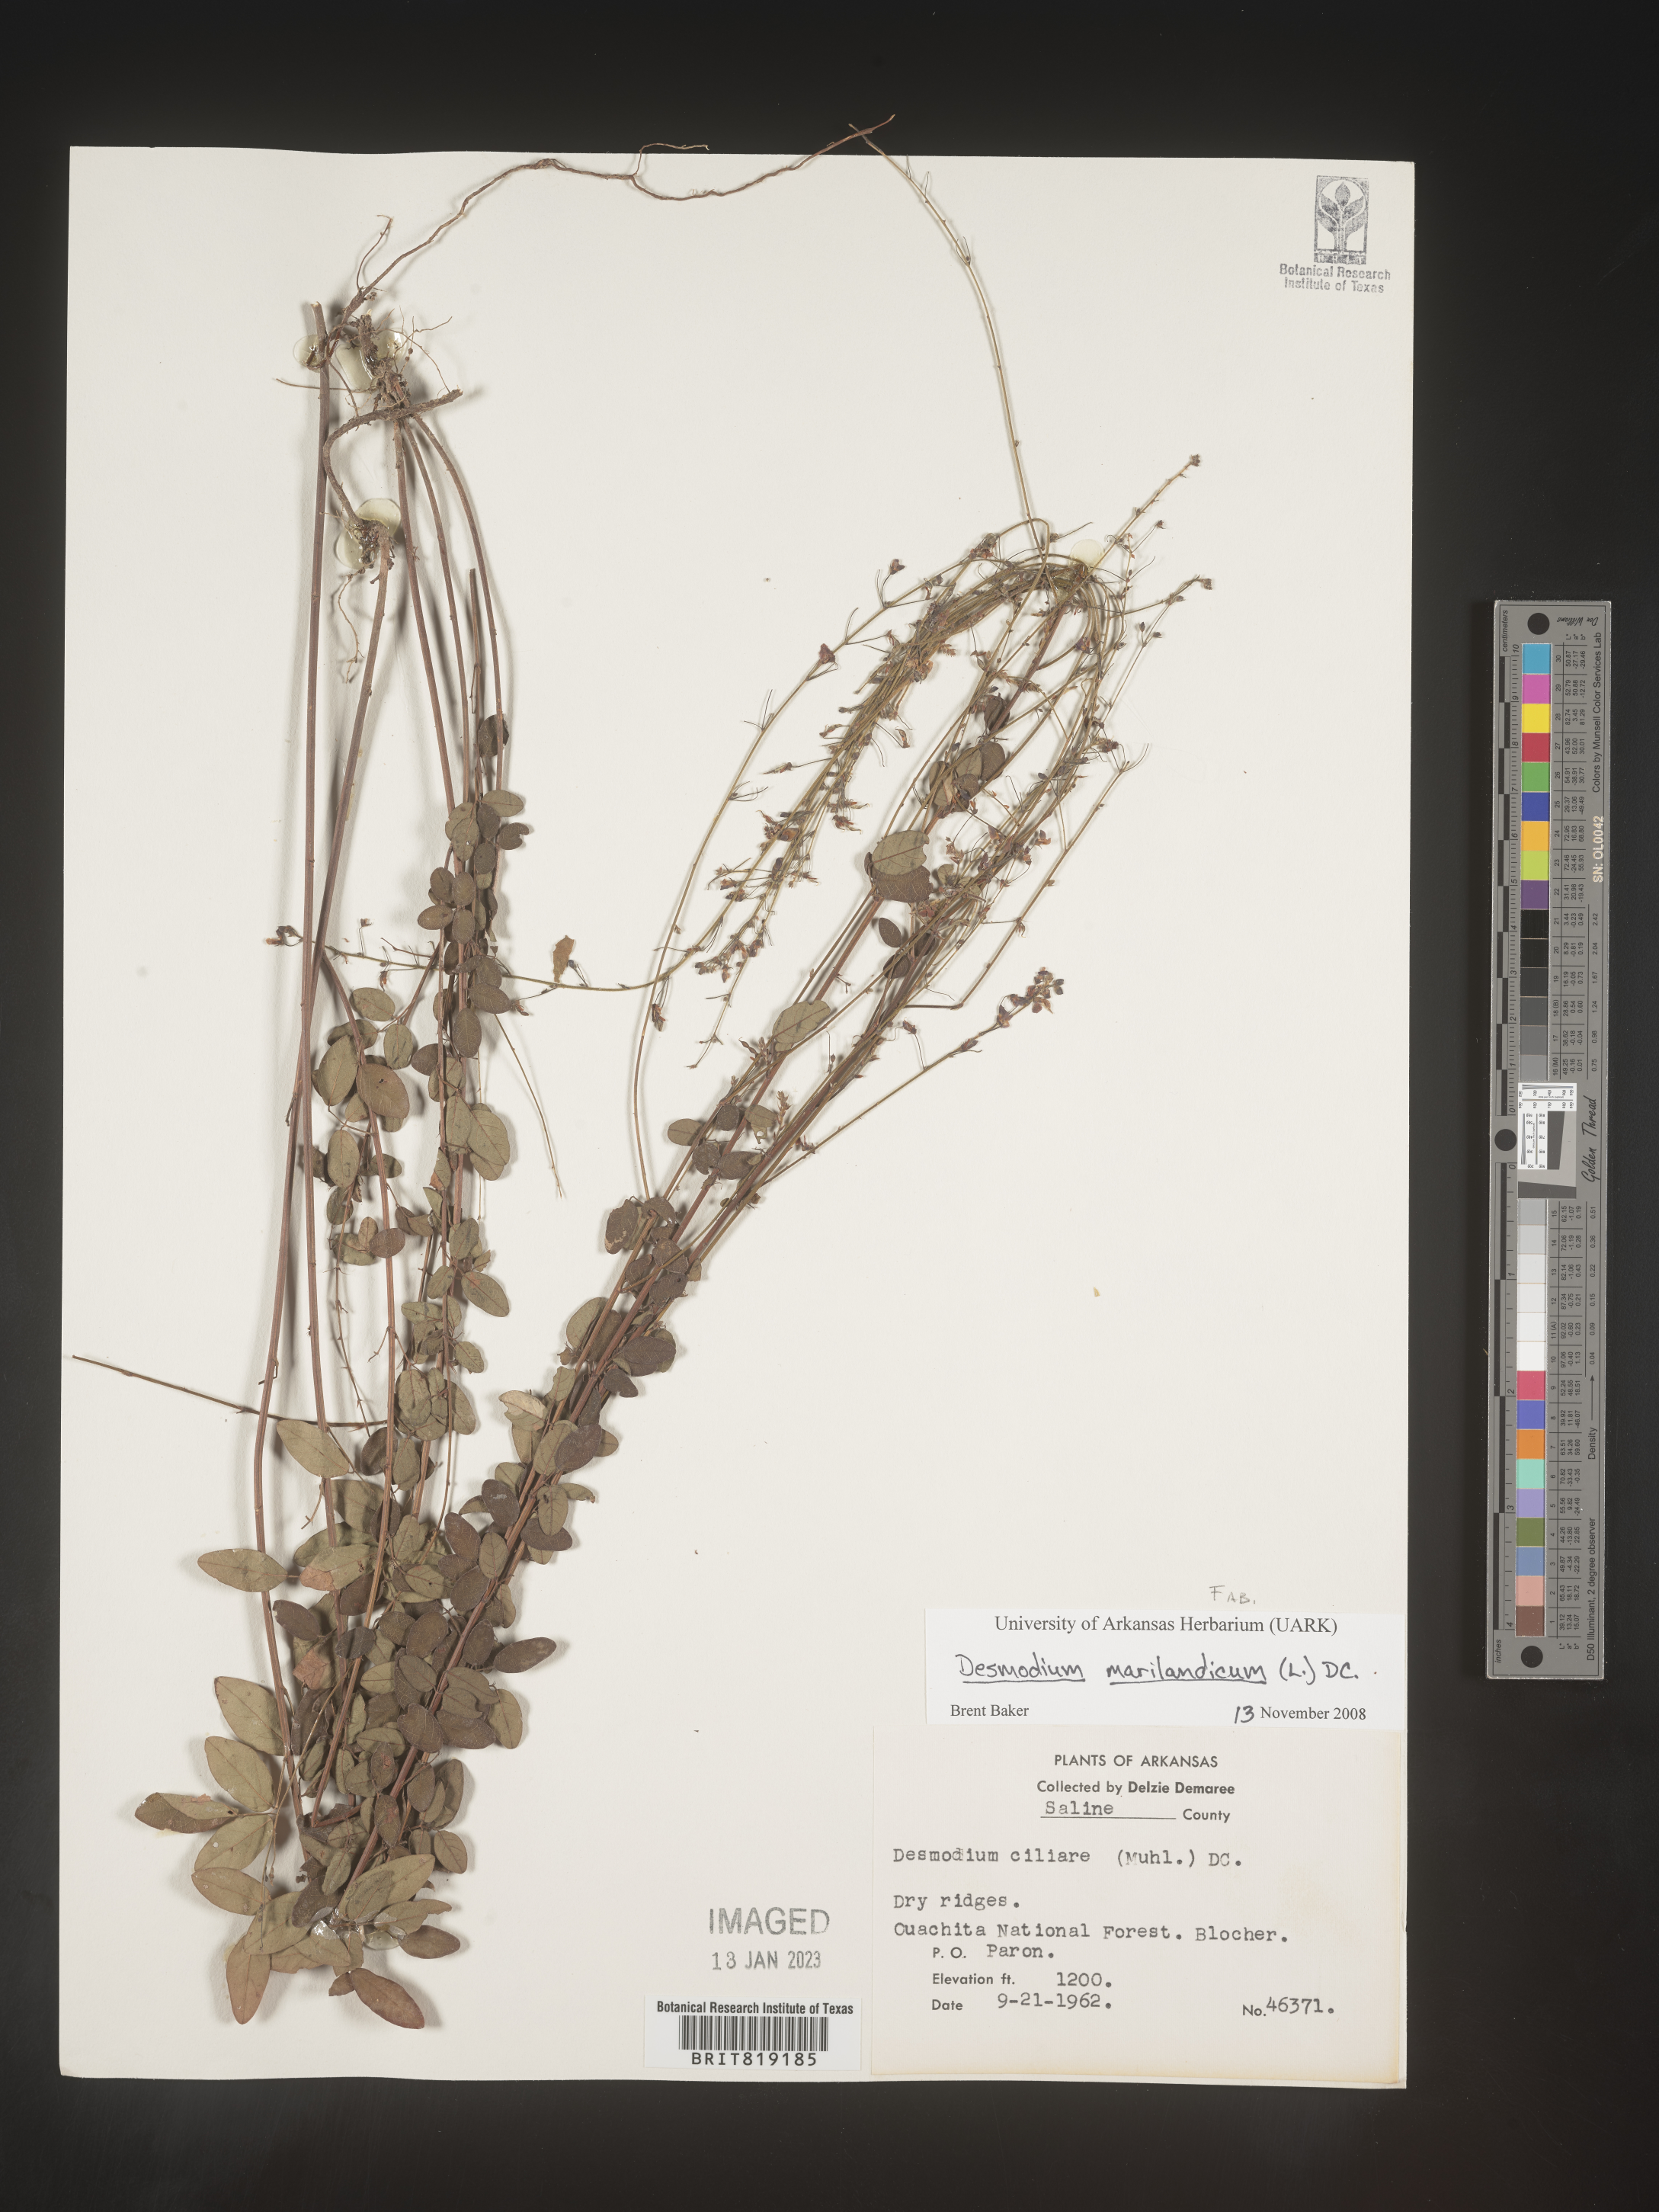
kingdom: Plantae
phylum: Tracheophyta
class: Magnoliopsida
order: Fabales
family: Fabaceae
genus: Desmodium
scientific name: Desmodium marilandicum
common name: Maryland tick-trefoil
